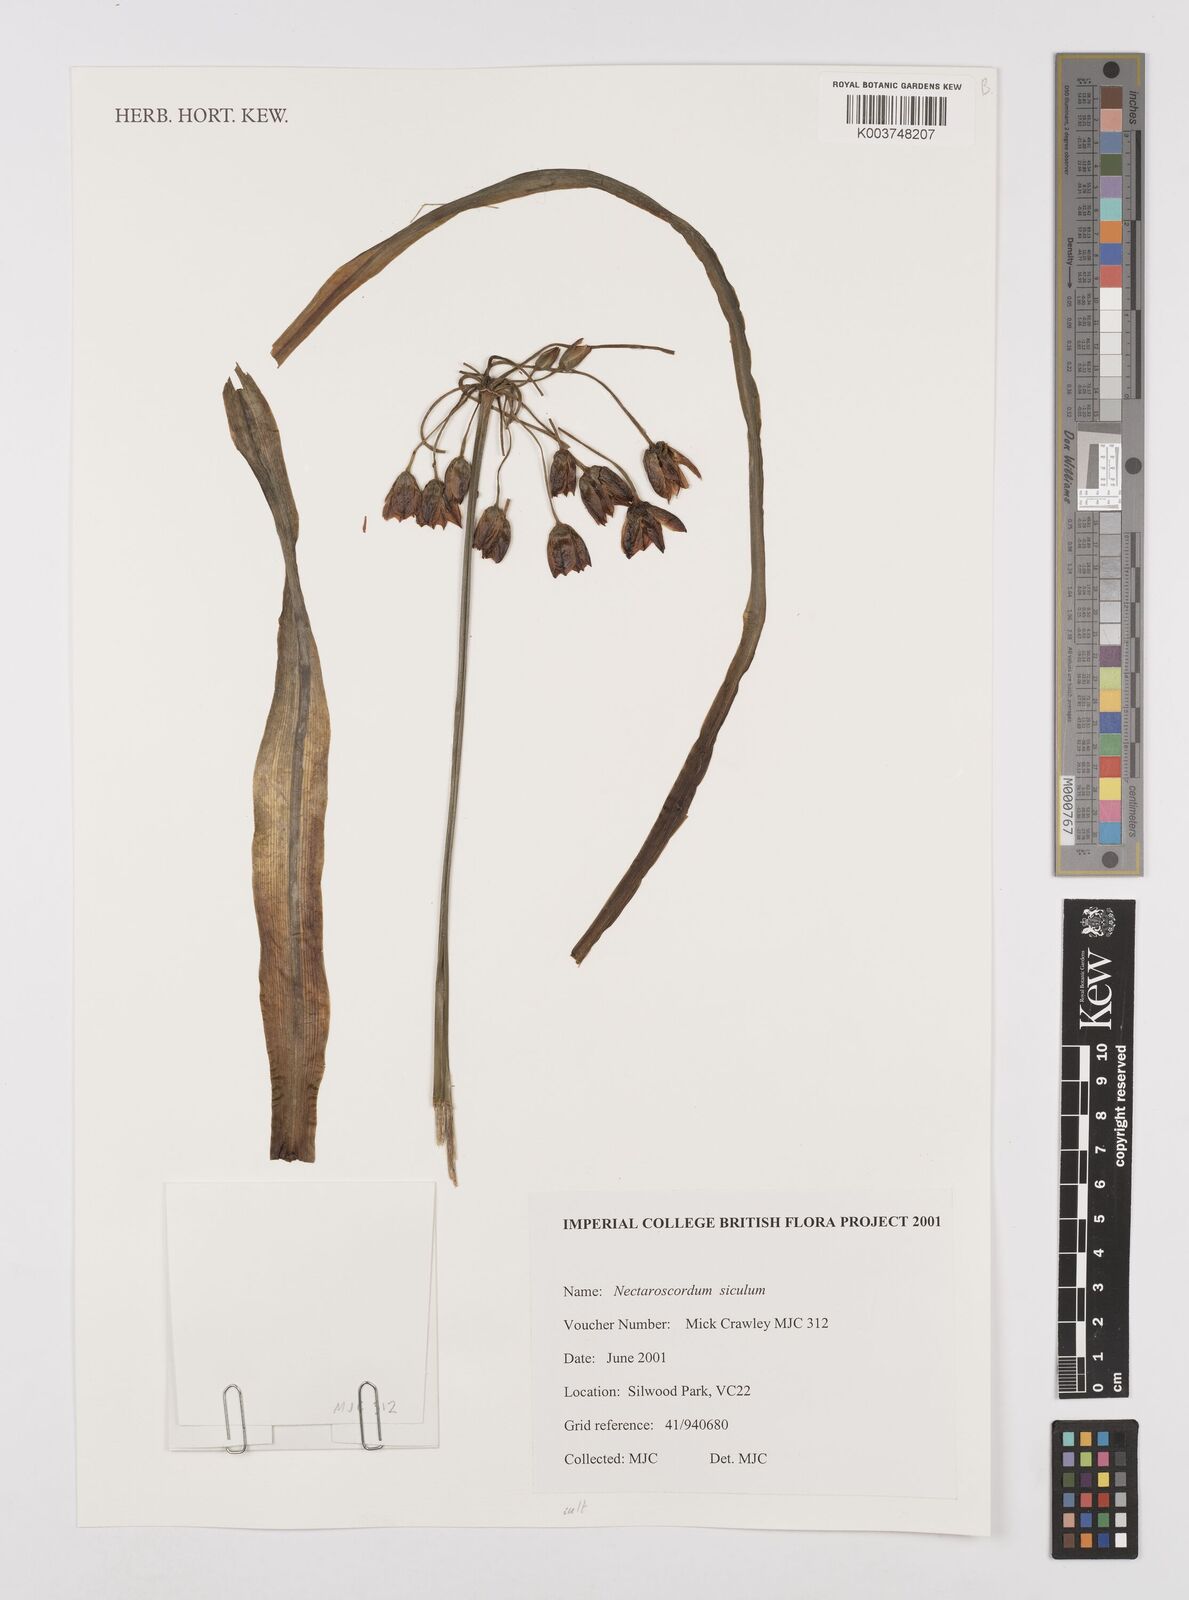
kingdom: Plantae
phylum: Tracheophyta
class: Liliopsida
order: Asparagales
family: Amaryllidaceae
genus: Allium
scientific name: Allium siculum
